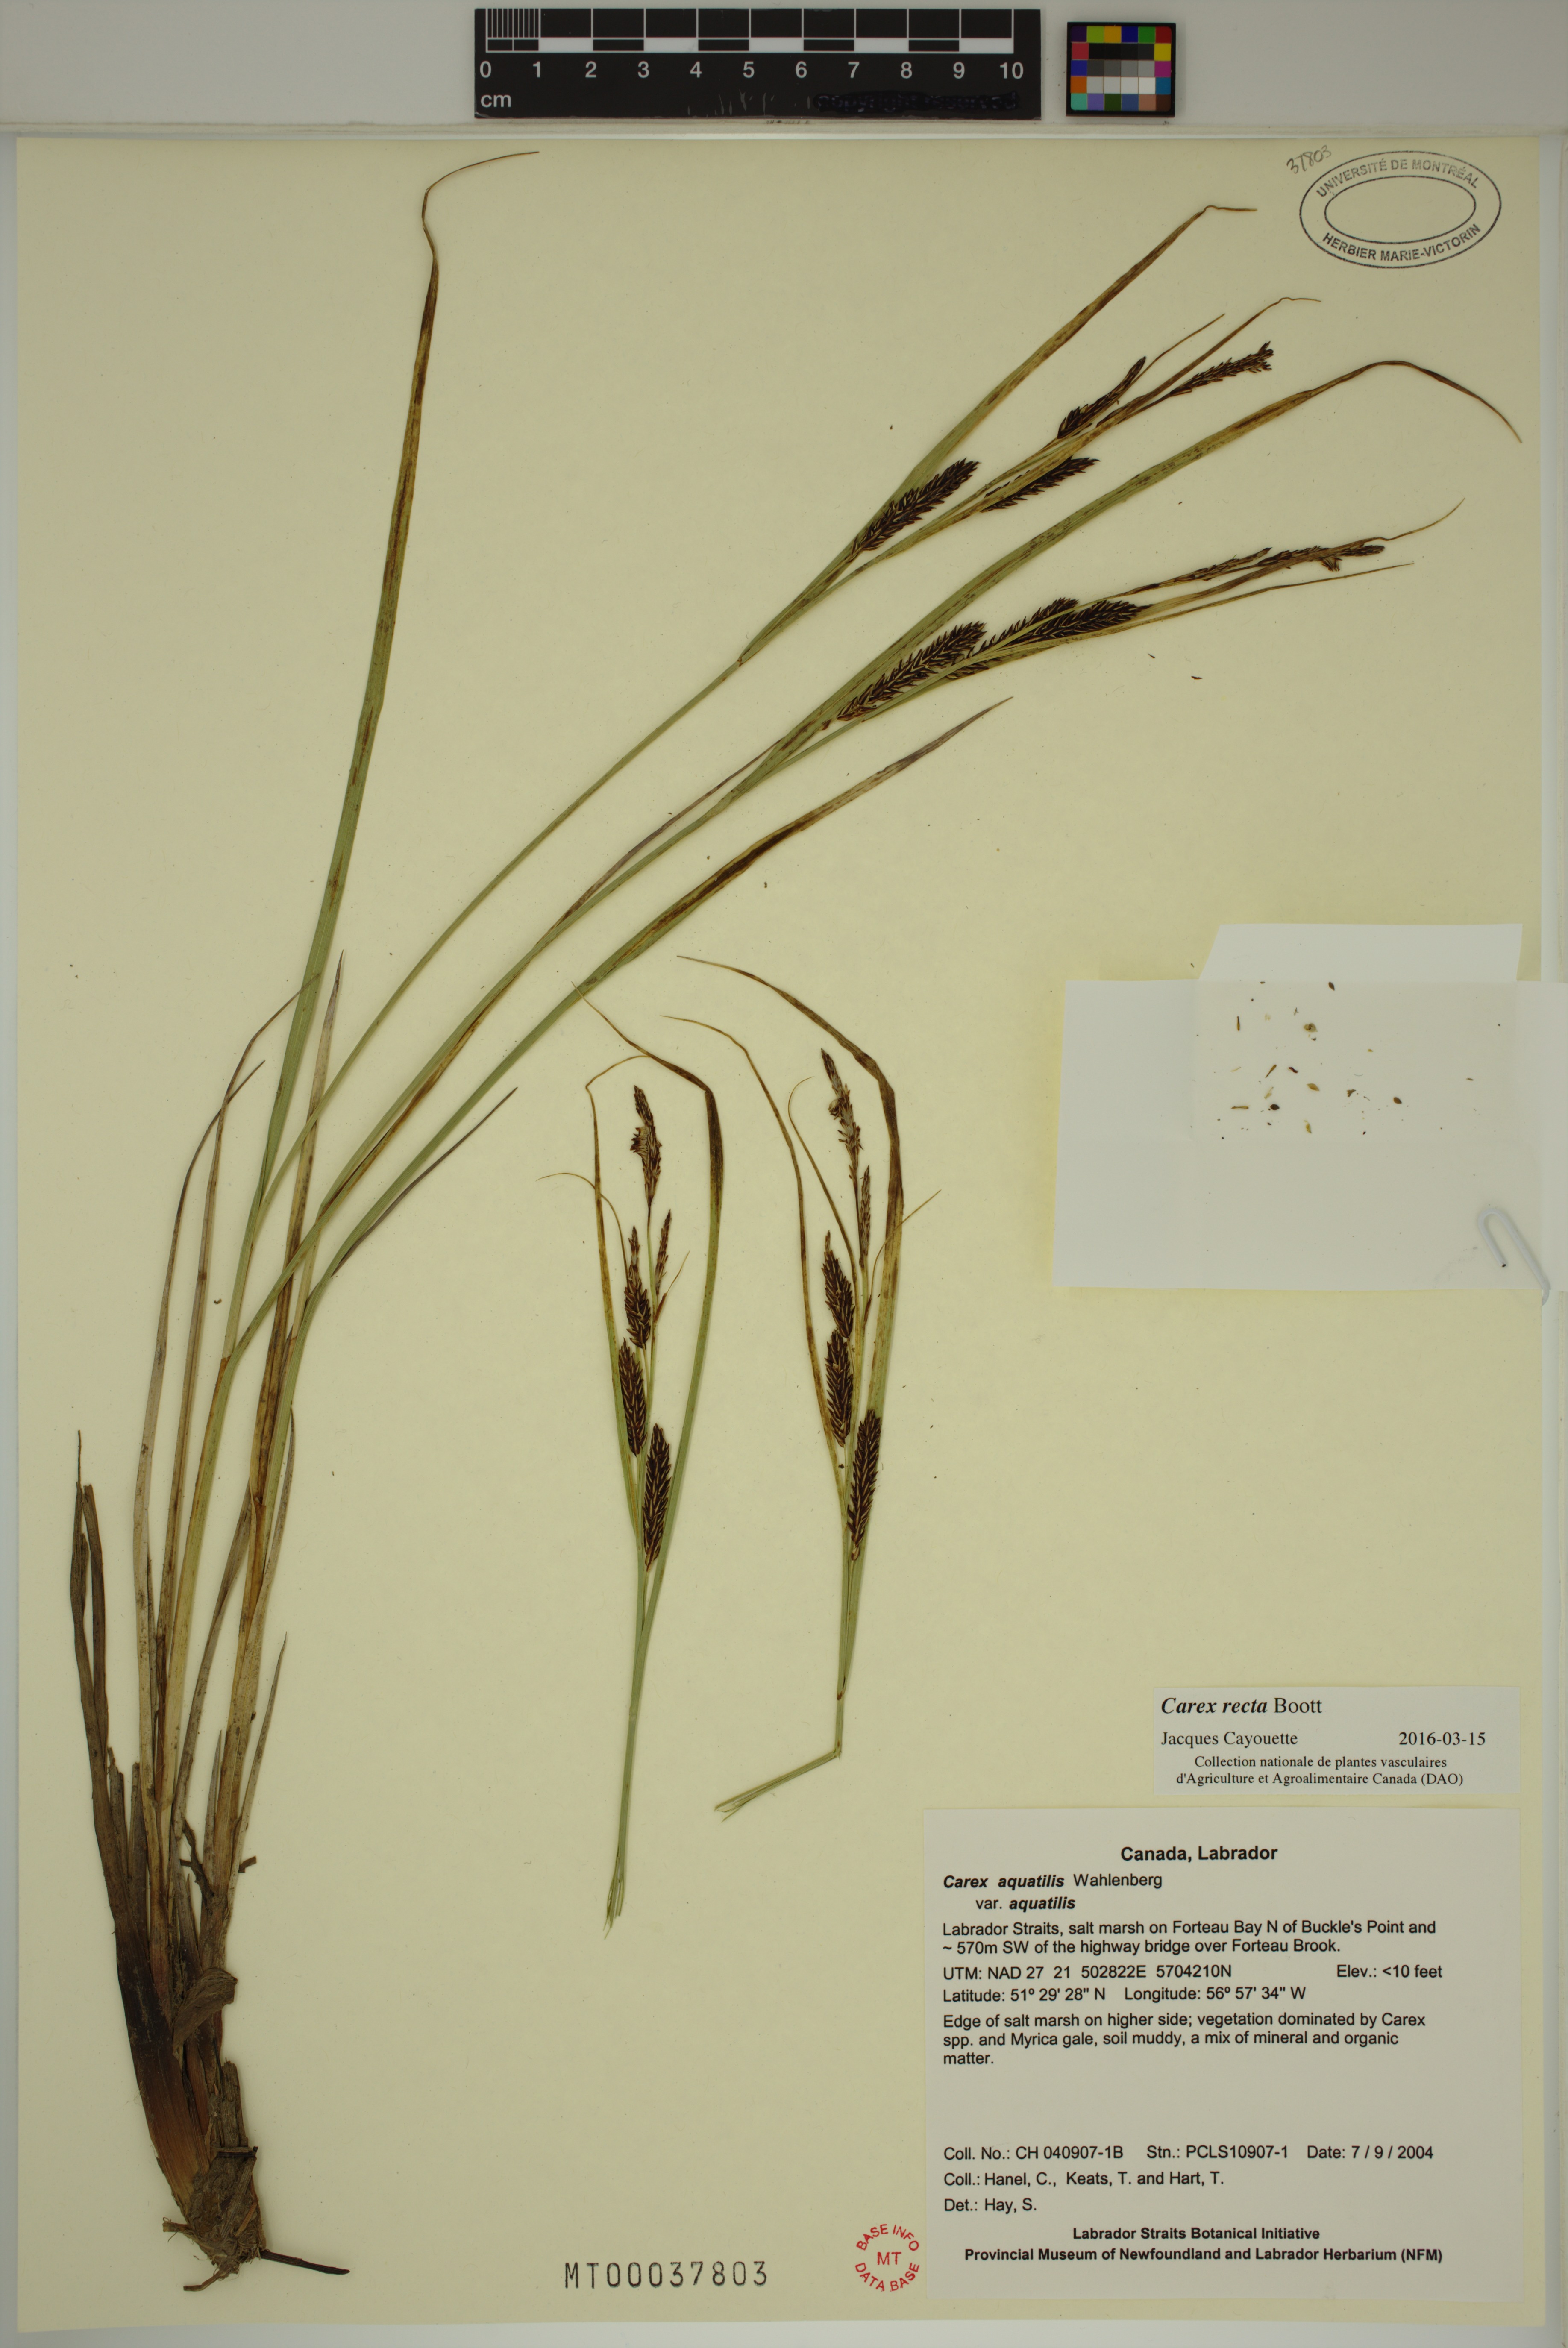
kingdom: Plantae
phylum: Tracheophyta
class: Liliopsida
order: Poales
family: Cyperaceae
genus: Carex
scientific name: Carex recta
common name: Estuarine sedge
